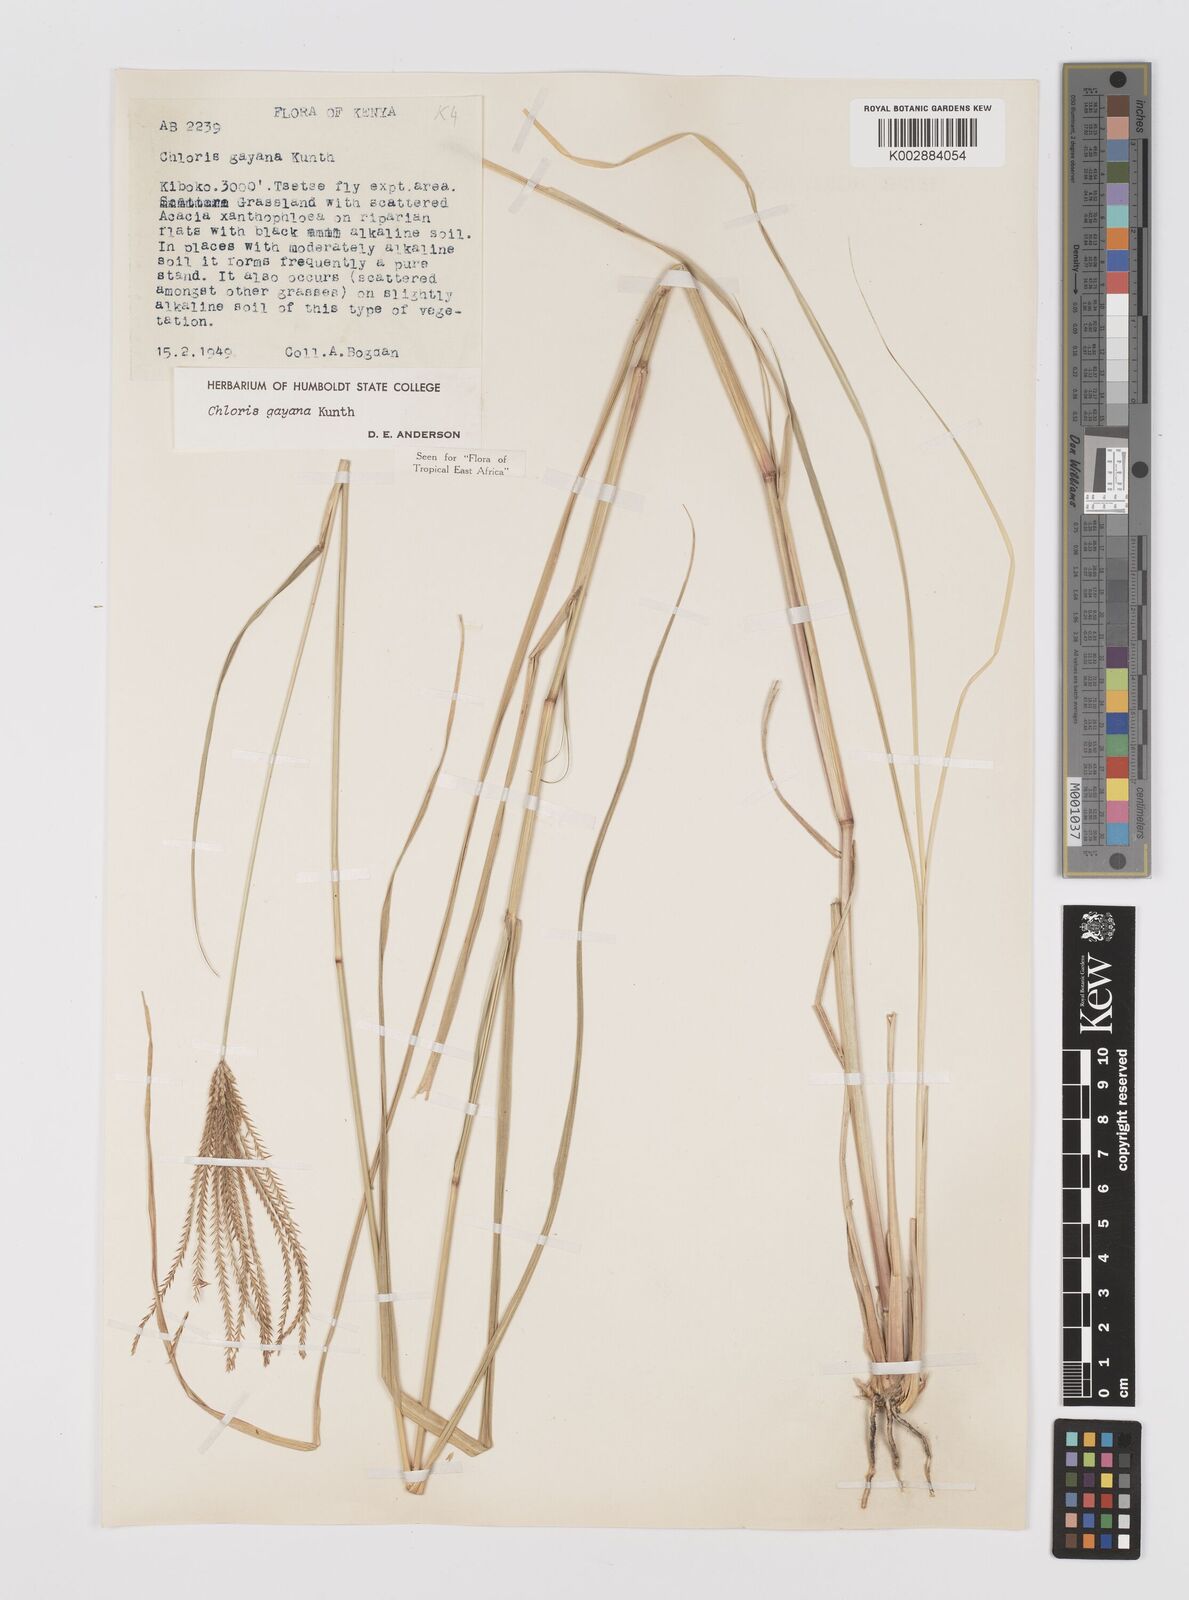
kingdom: Plantae
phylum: Tracheophyta
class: Liliopsida
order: Poales
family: Poaceae
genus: Chloris
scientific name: Chloris gayana
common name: Rhodes grass
